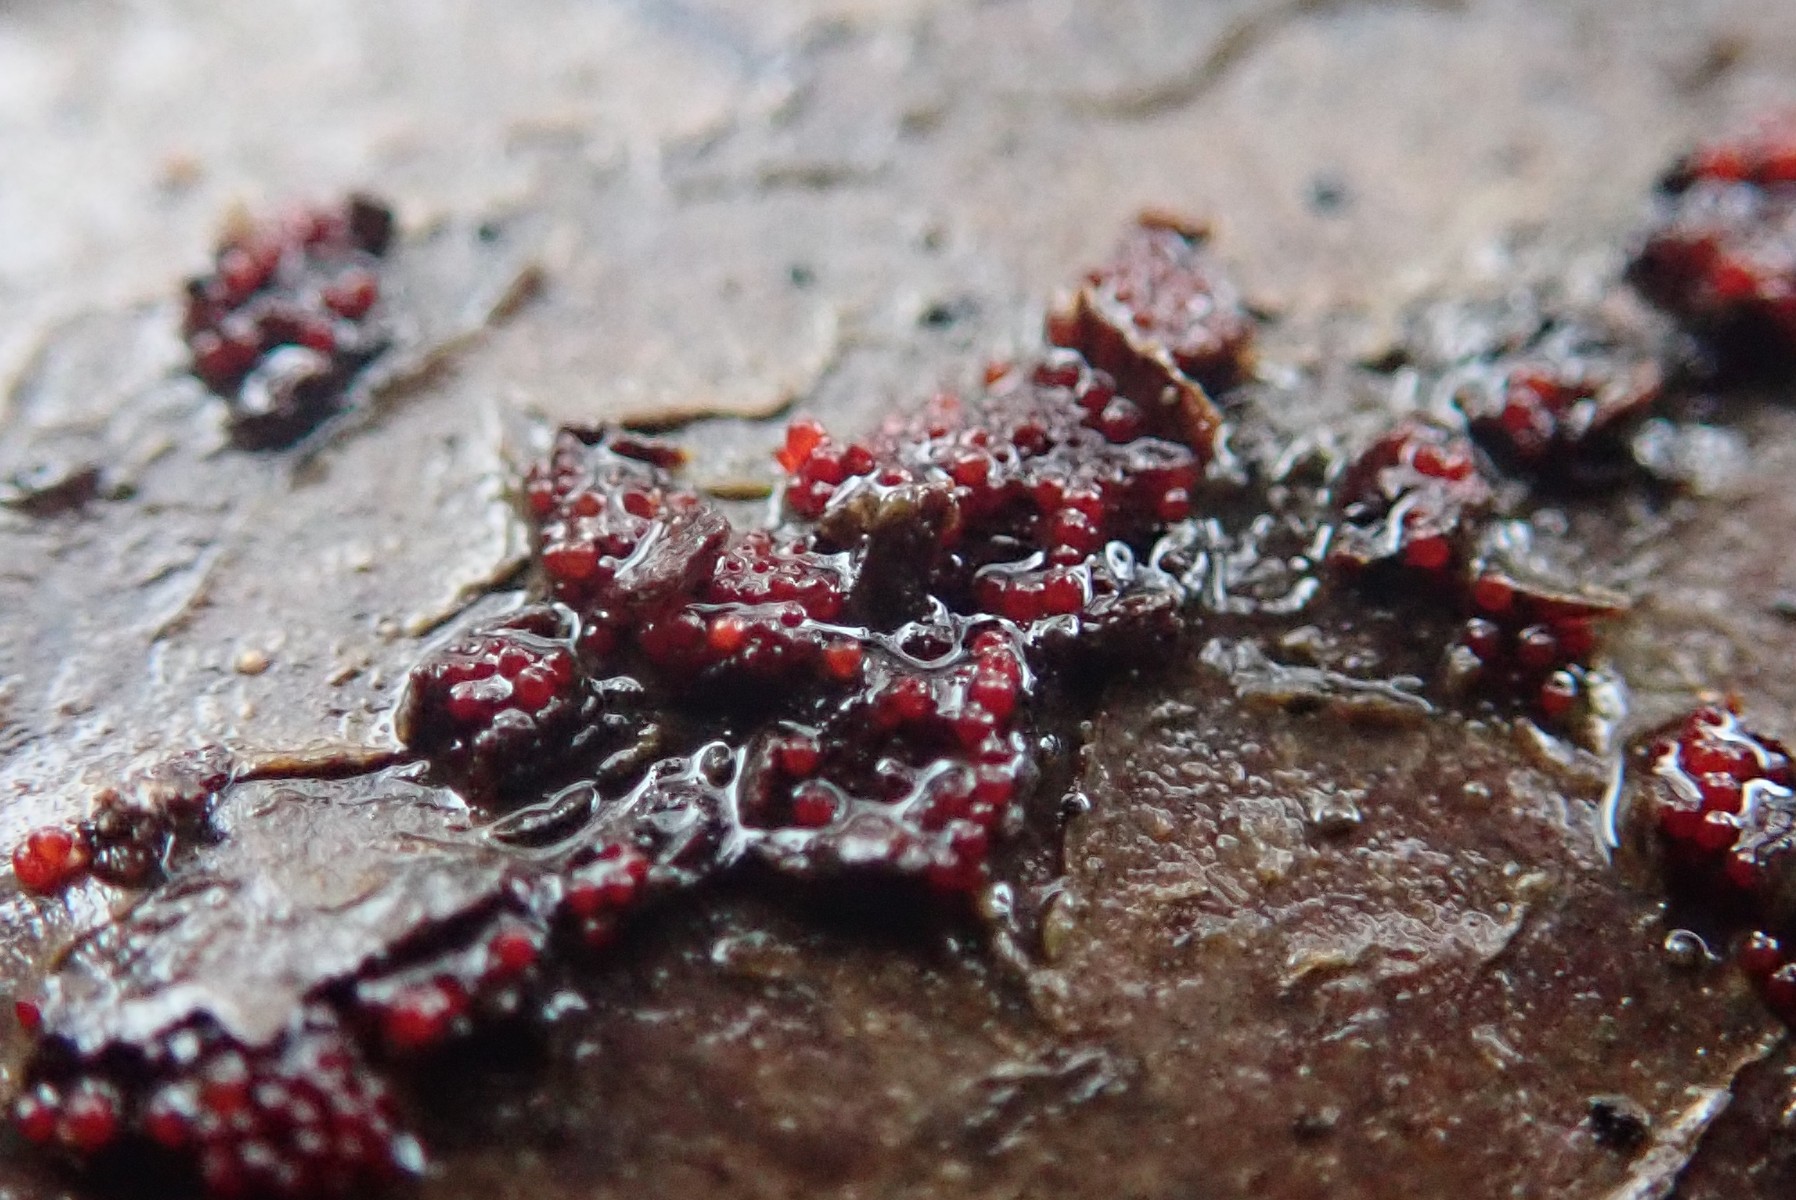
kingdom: Fungi
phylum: Ascomycota
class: Sordariomycetes
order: Hypocreales
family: Nectriaceae
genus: Neonectria
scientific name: Neonectria coccinea
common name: bøgebark-cinnobersvamp
